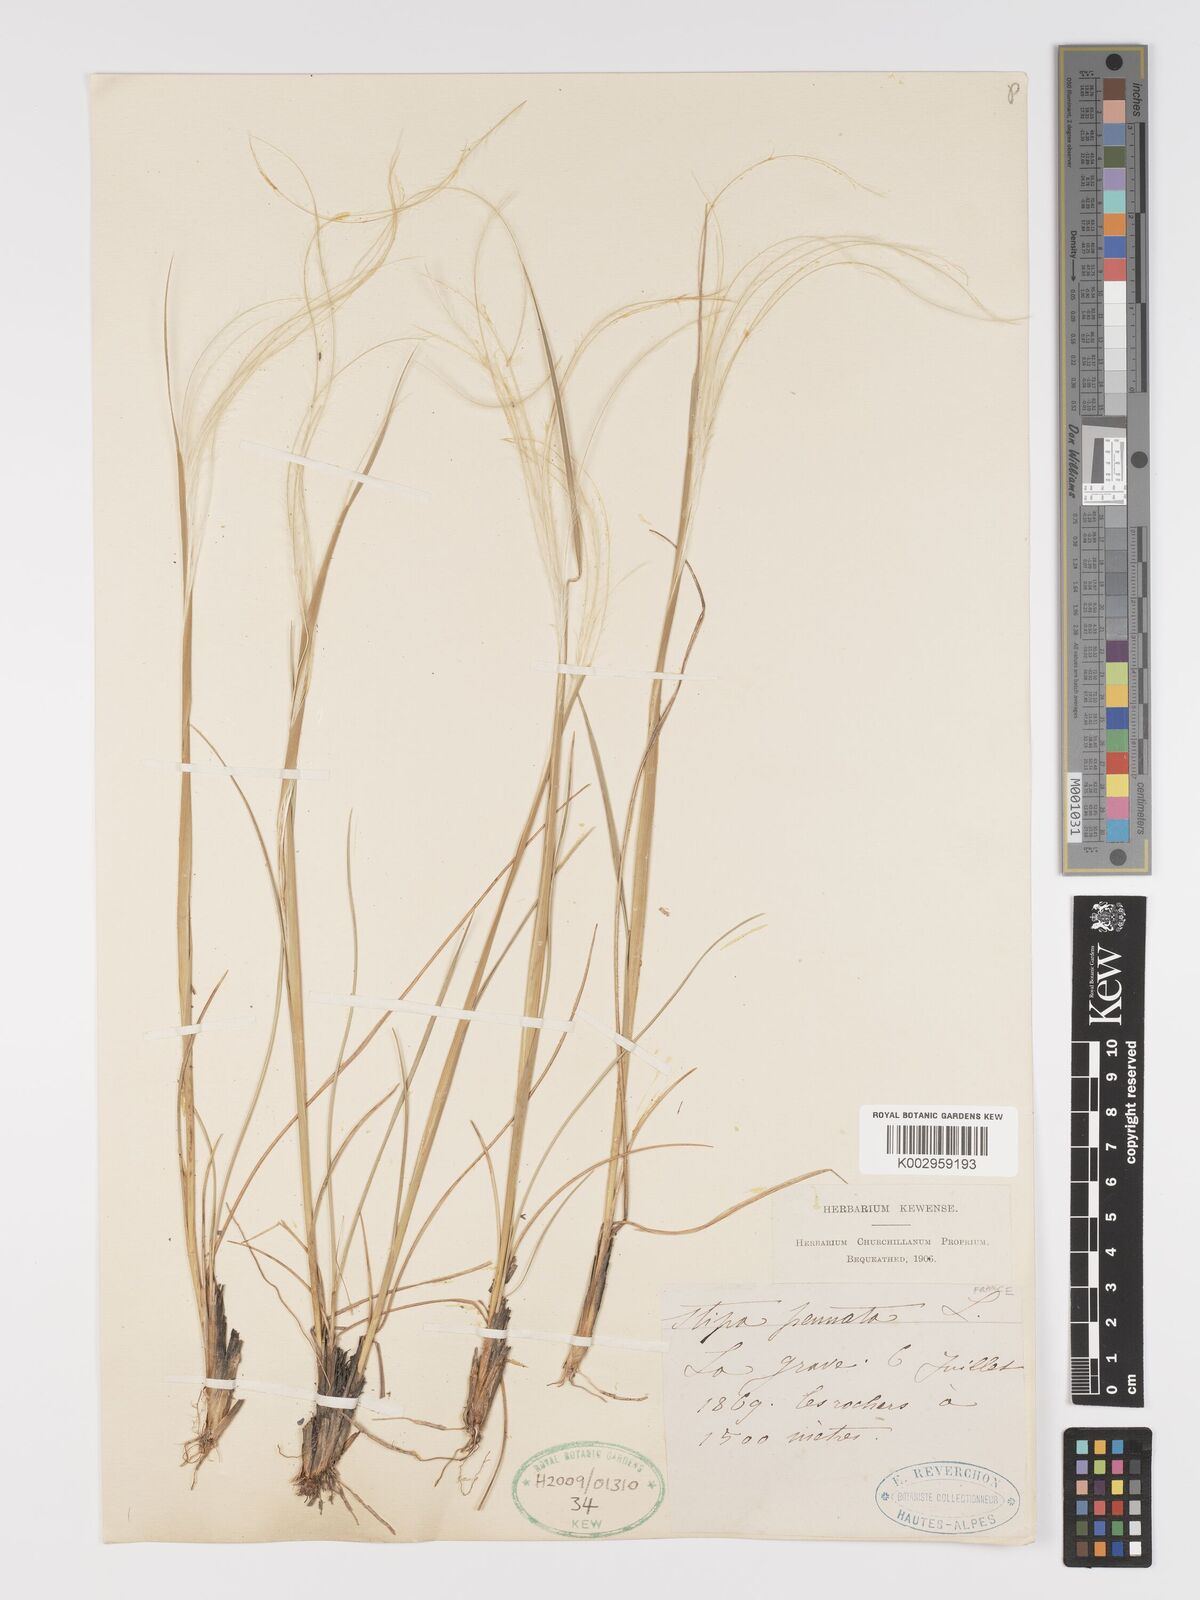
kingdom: Plantae
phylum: Tracheophyta
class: Liliopsida
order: Poales
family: Poaceae
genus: Stipa
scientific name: Stipa pennata
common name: European feather grass
